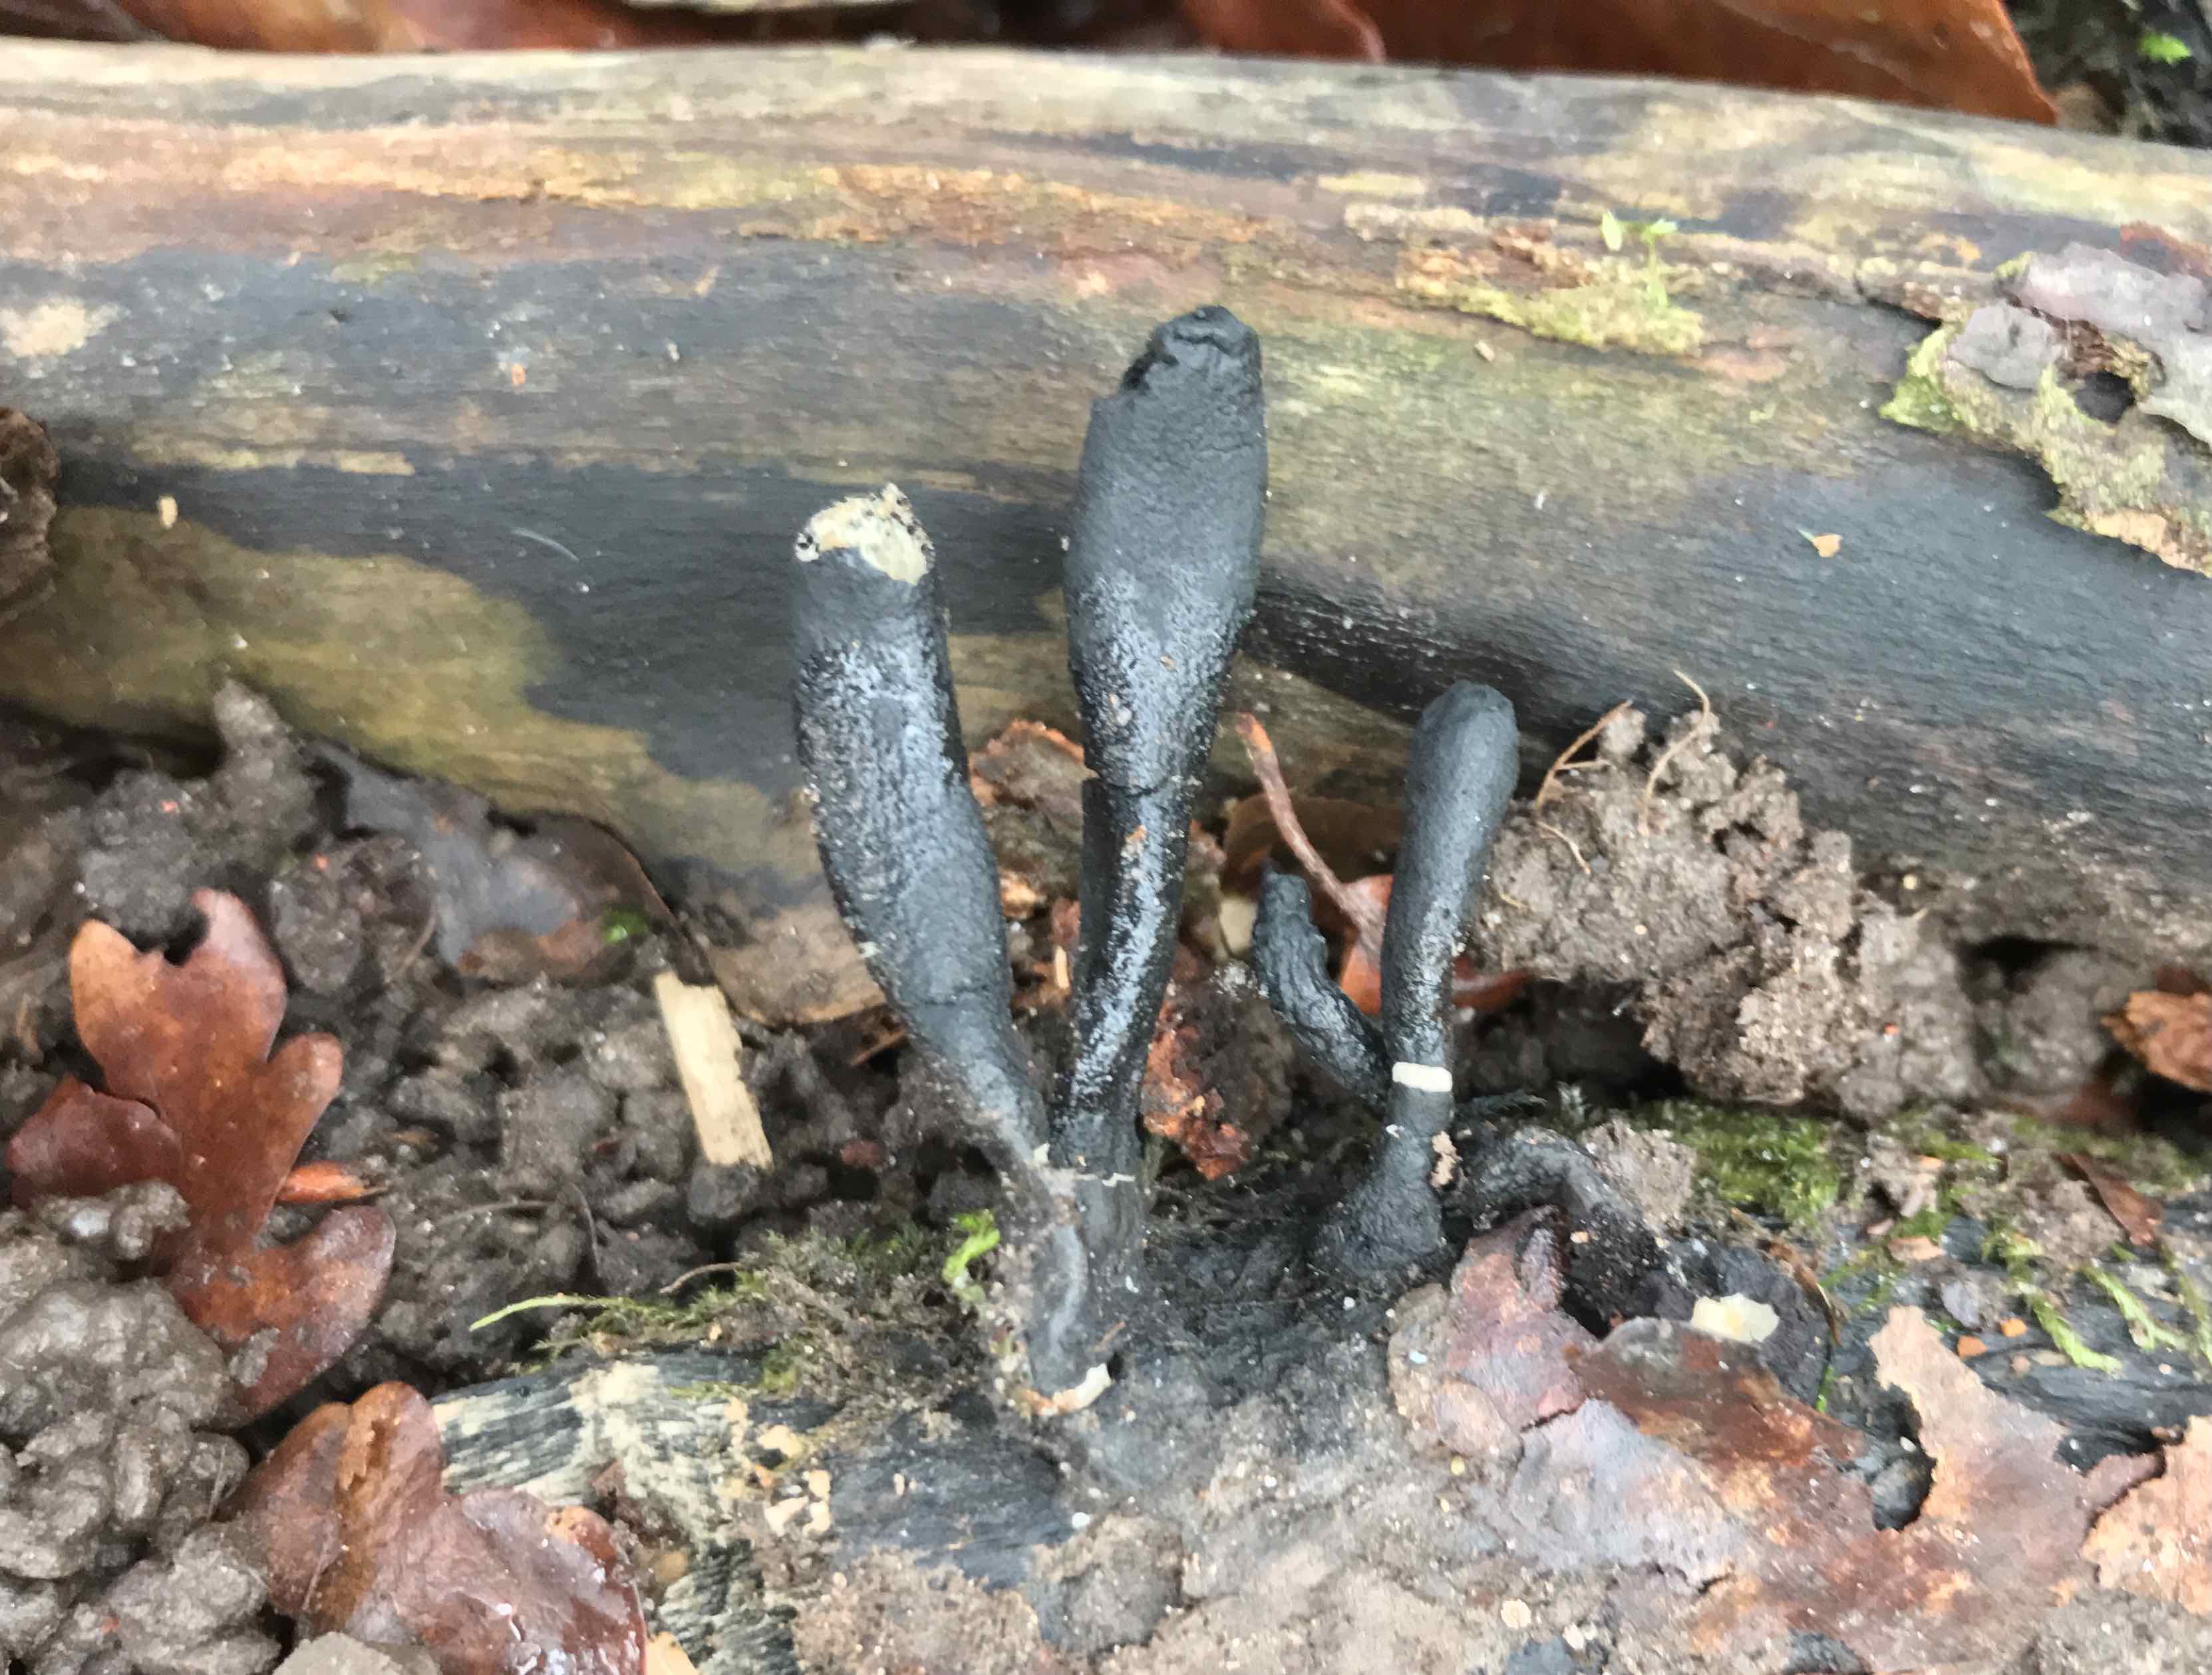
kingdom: Fungi
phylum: Ascomycota
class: Sordariomycetes
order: Xylariales
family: Xylariaceae
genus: Xylaria
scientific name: Xylaria longipes
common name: slank stødsvamp
